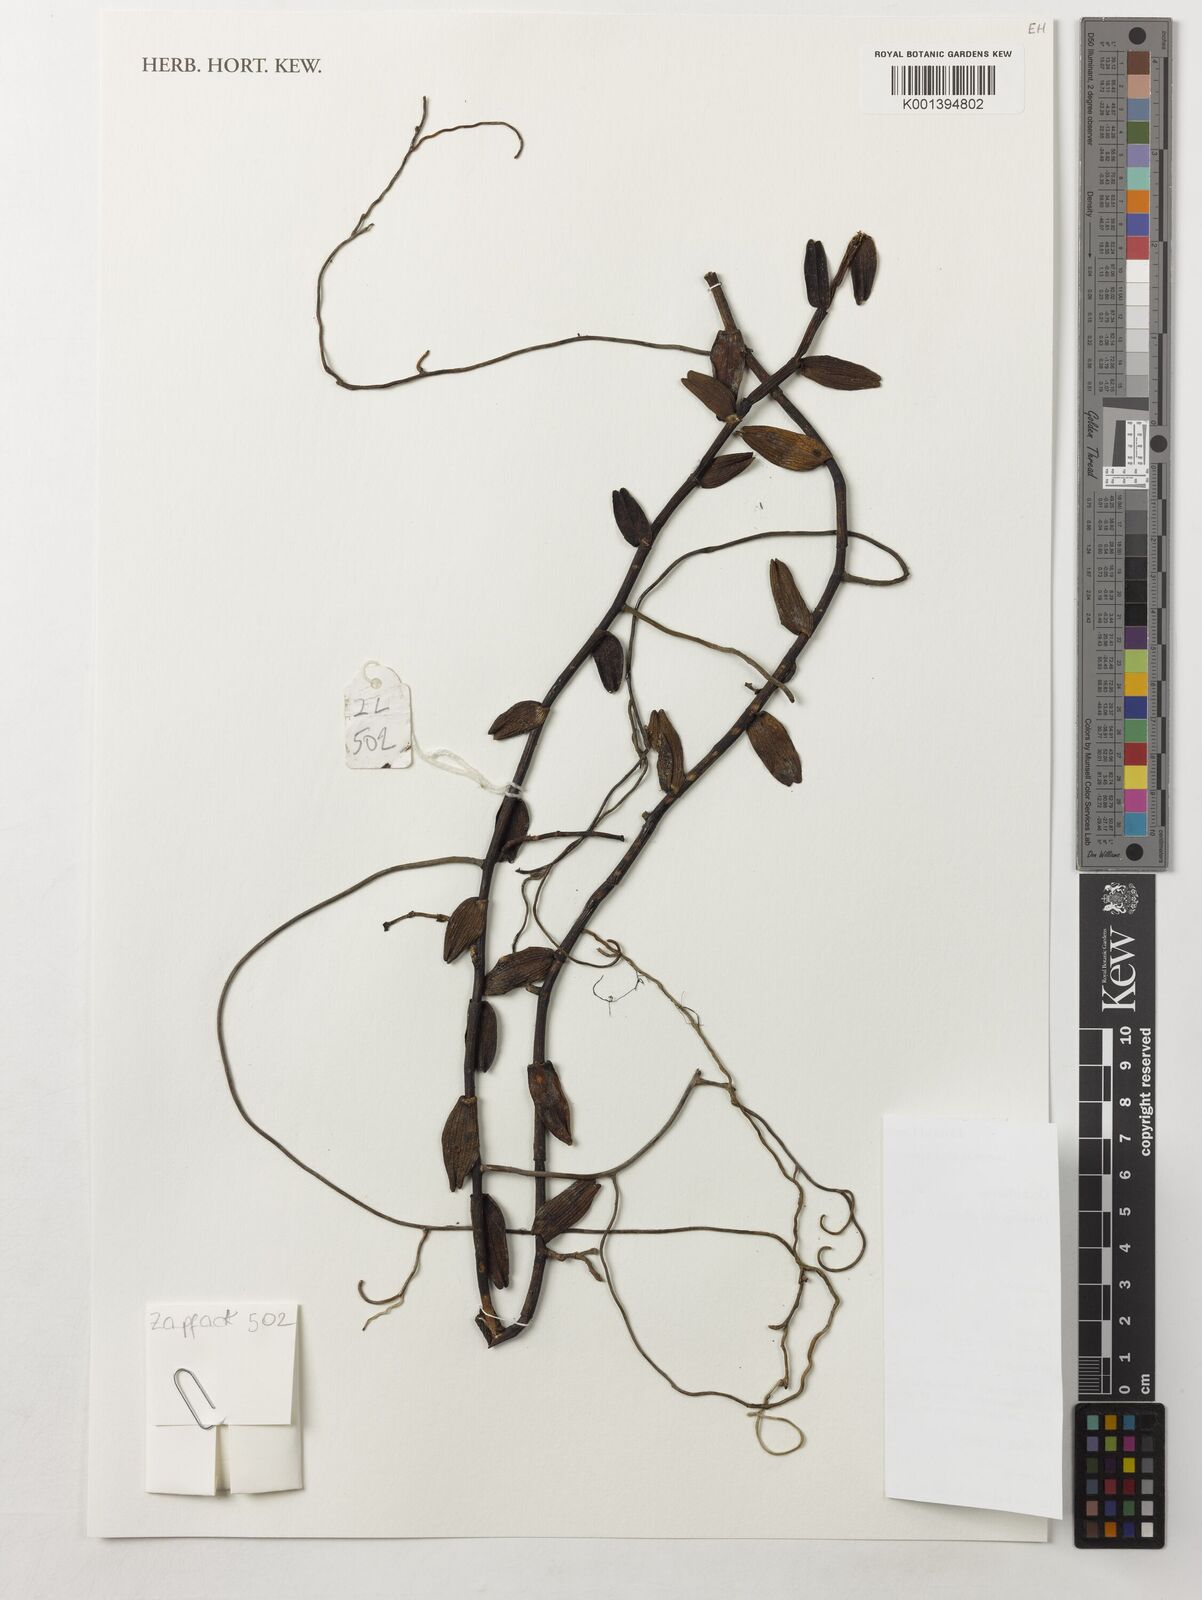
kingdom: Plantae
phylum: Tracheophyta
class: Liliopsida
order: Asparagales
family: Orchidaceae
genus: Dinklageella
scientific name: Dinklageella liberica
